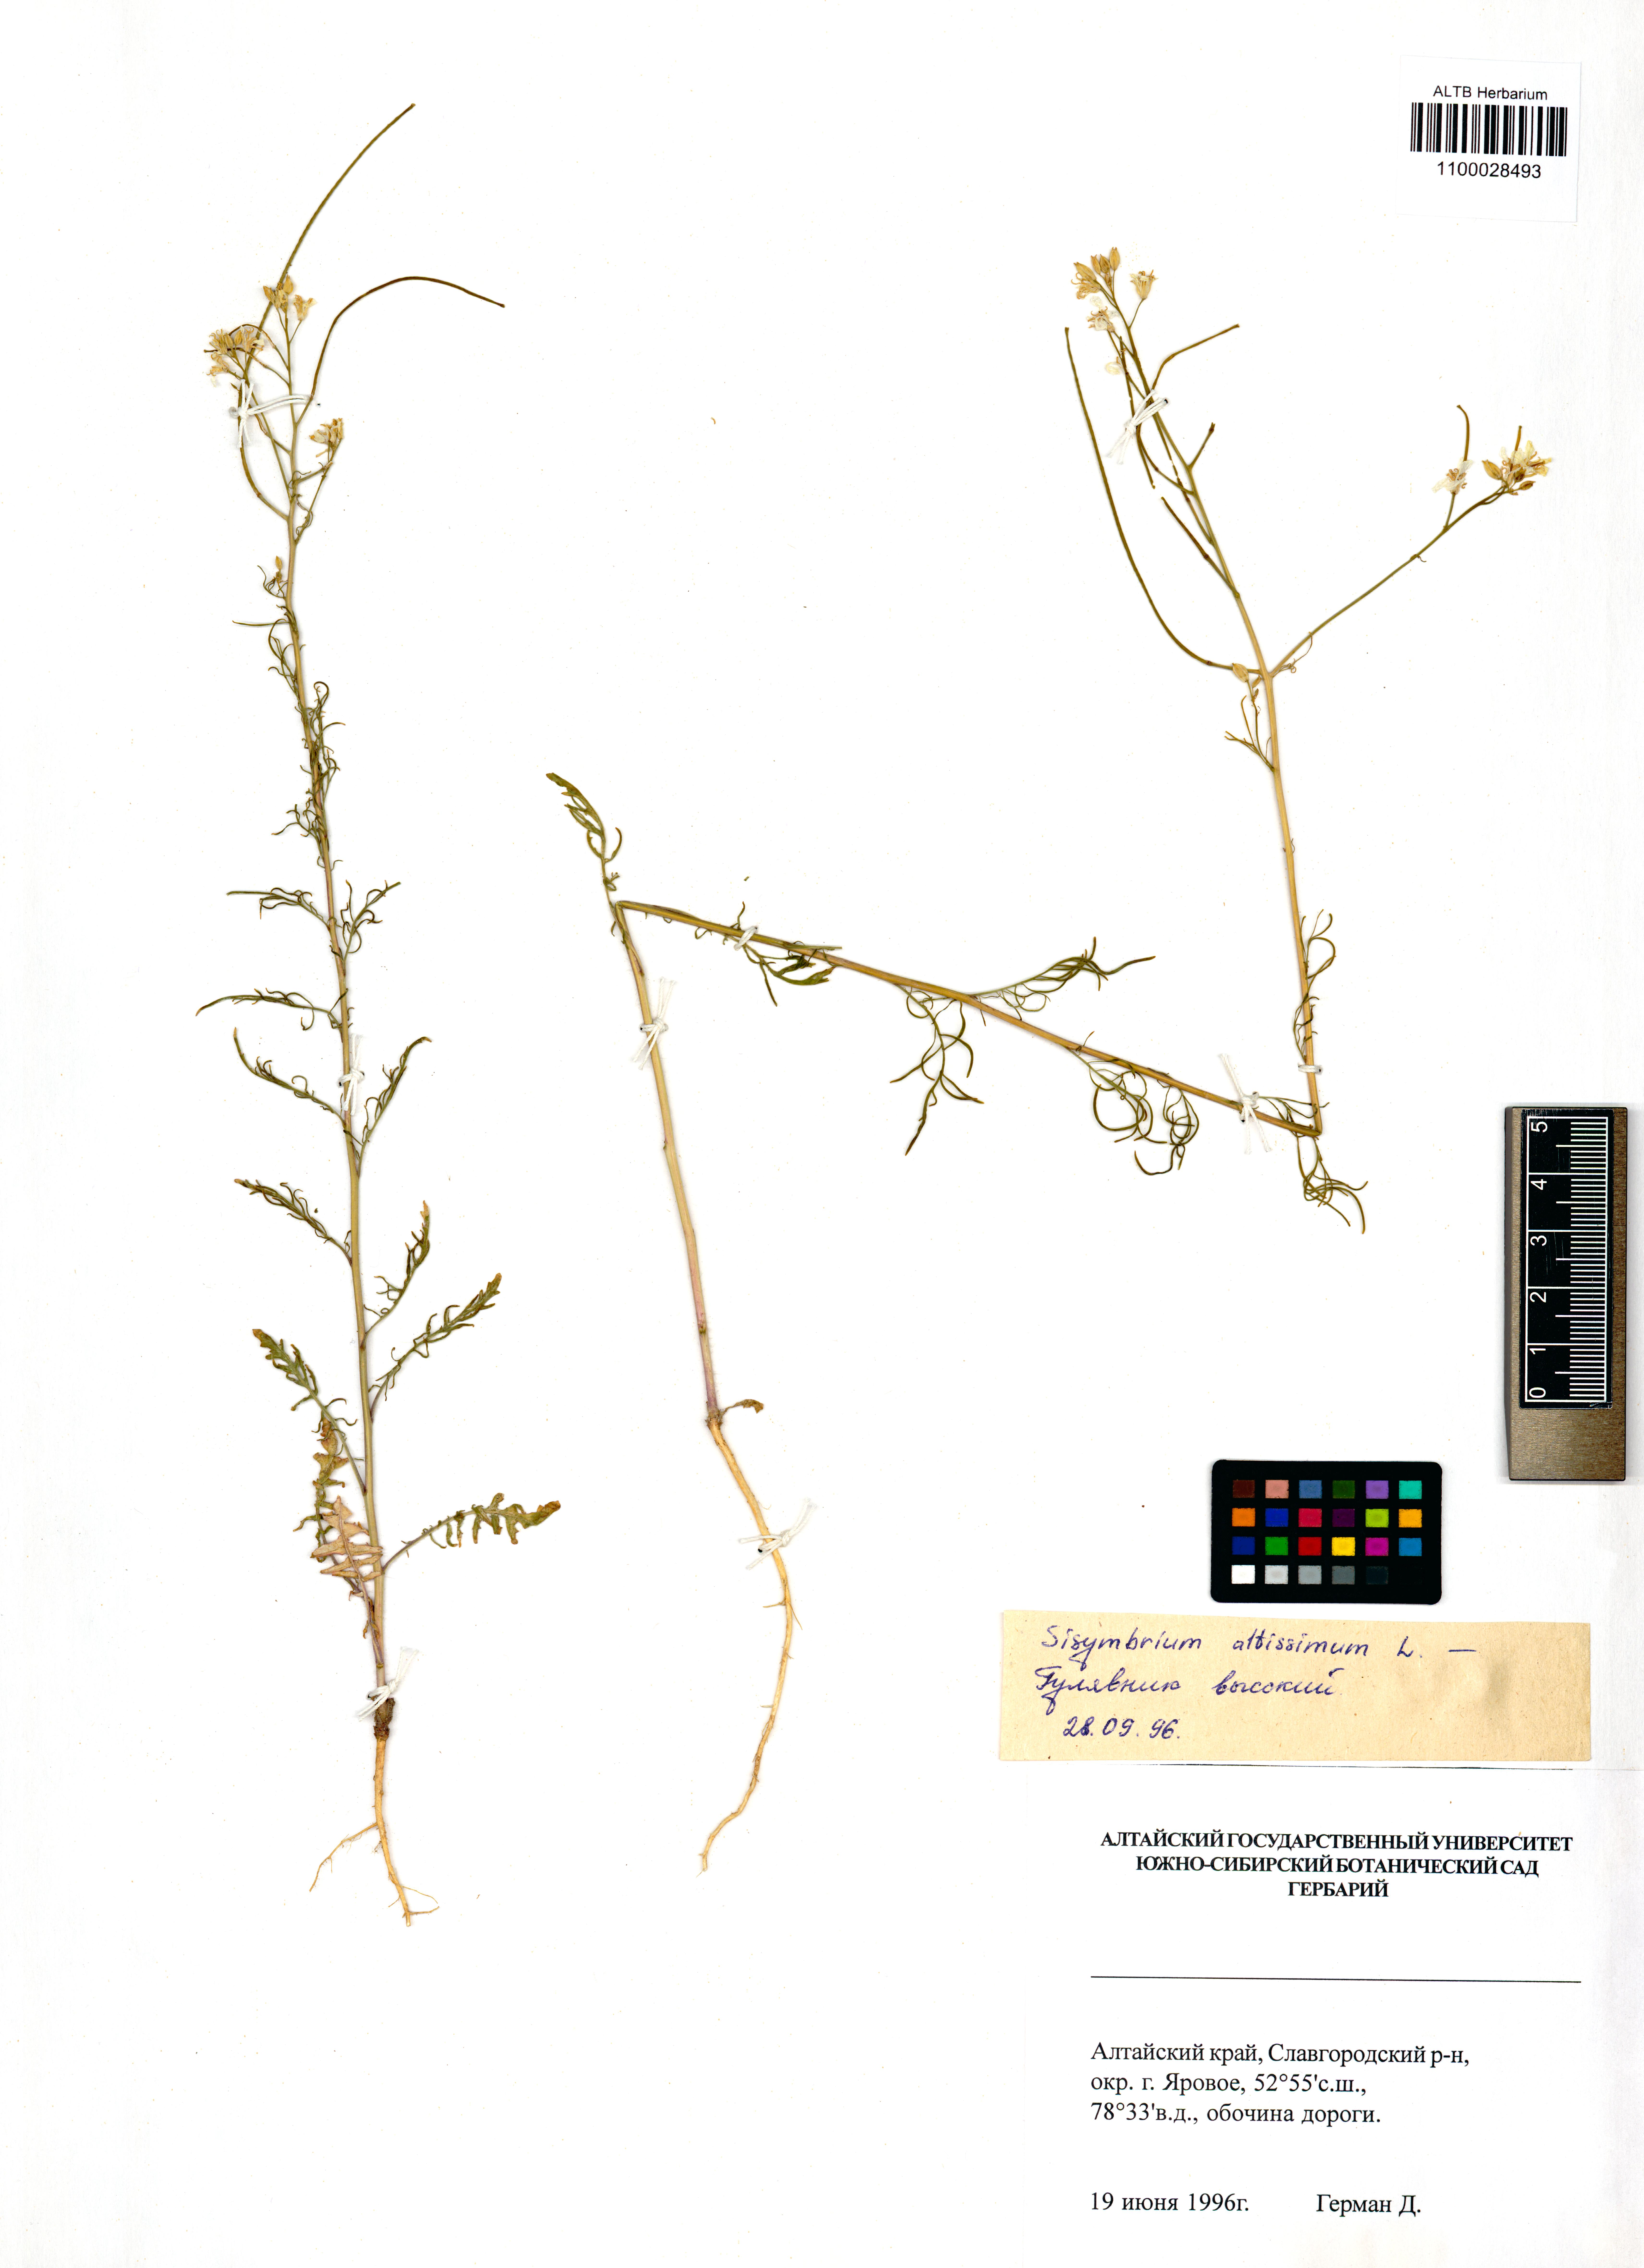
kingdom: Plantae
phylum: Tracheophyta
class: Magnoliopsida
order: Brassicales
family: Brassicaceae
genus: Sisymbrium
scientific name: Sisymbrium altissimum
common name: Tall rocket
